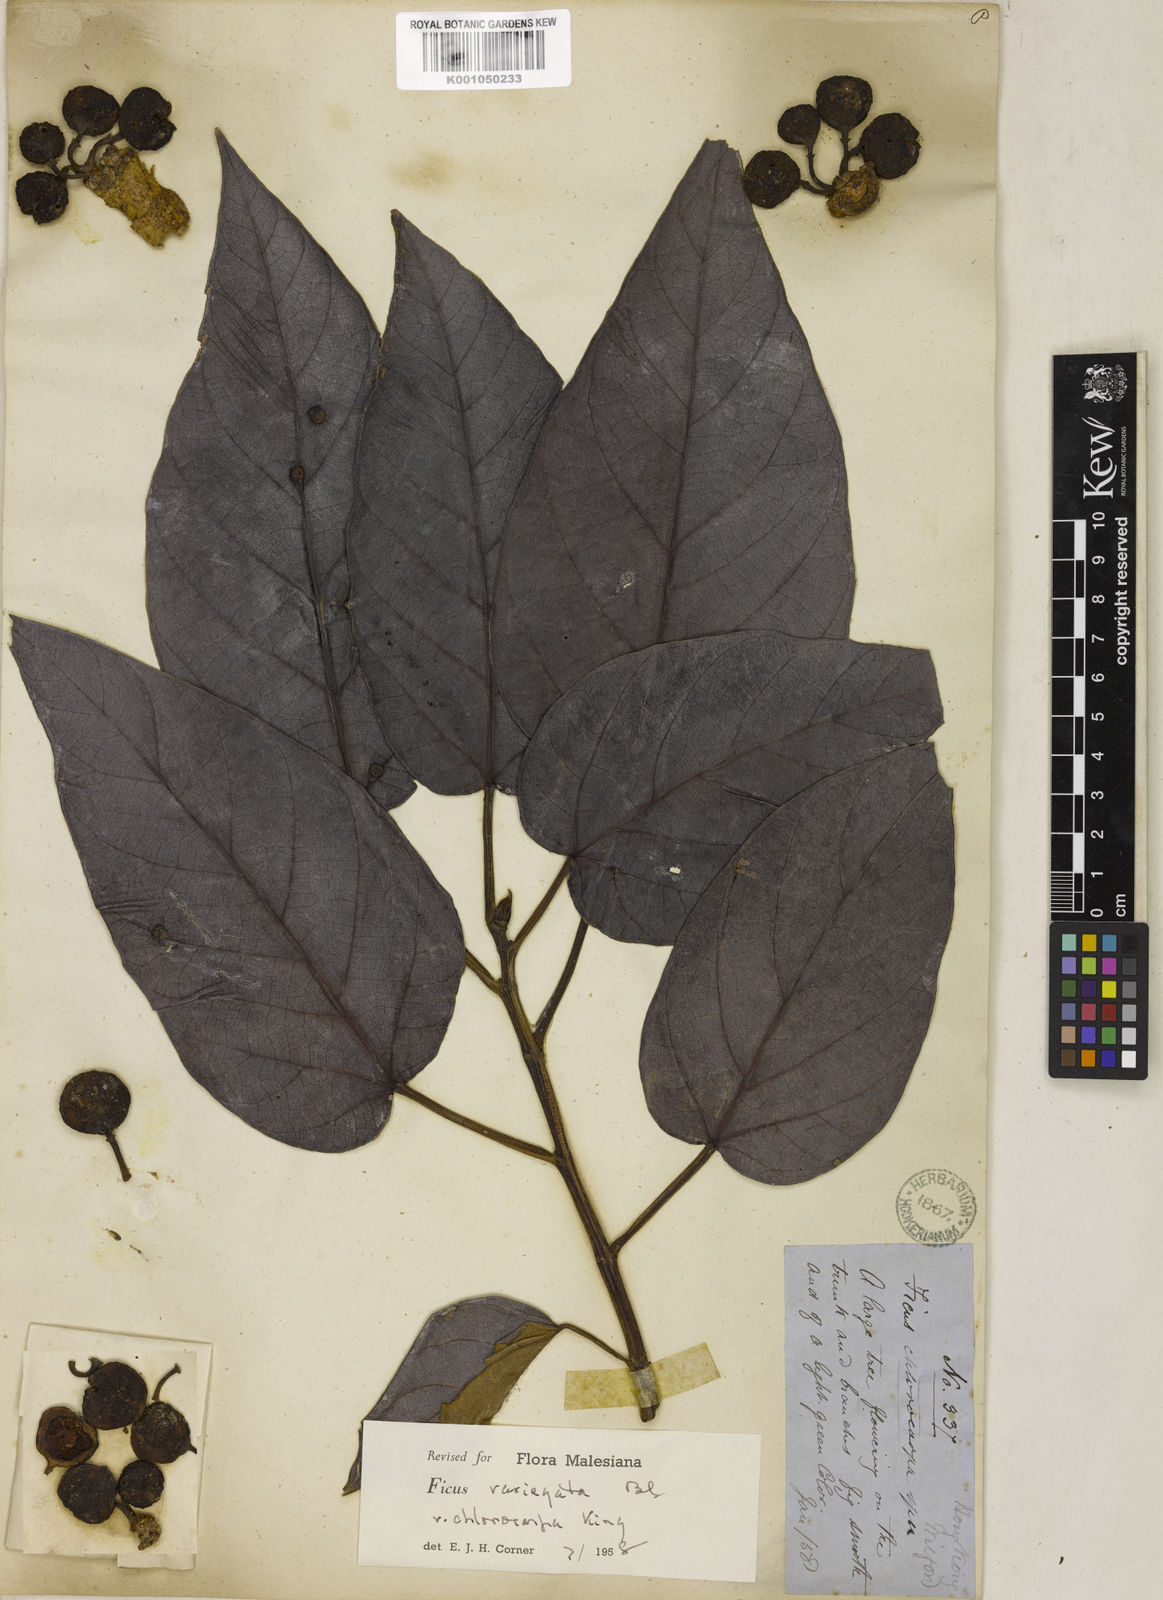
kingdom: Plantae
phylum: Tracheophyta
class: Magnoliopsida
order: Rosales
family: Moraceae
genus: Ficus
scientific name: Ficus variegata
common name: Variegated fig
